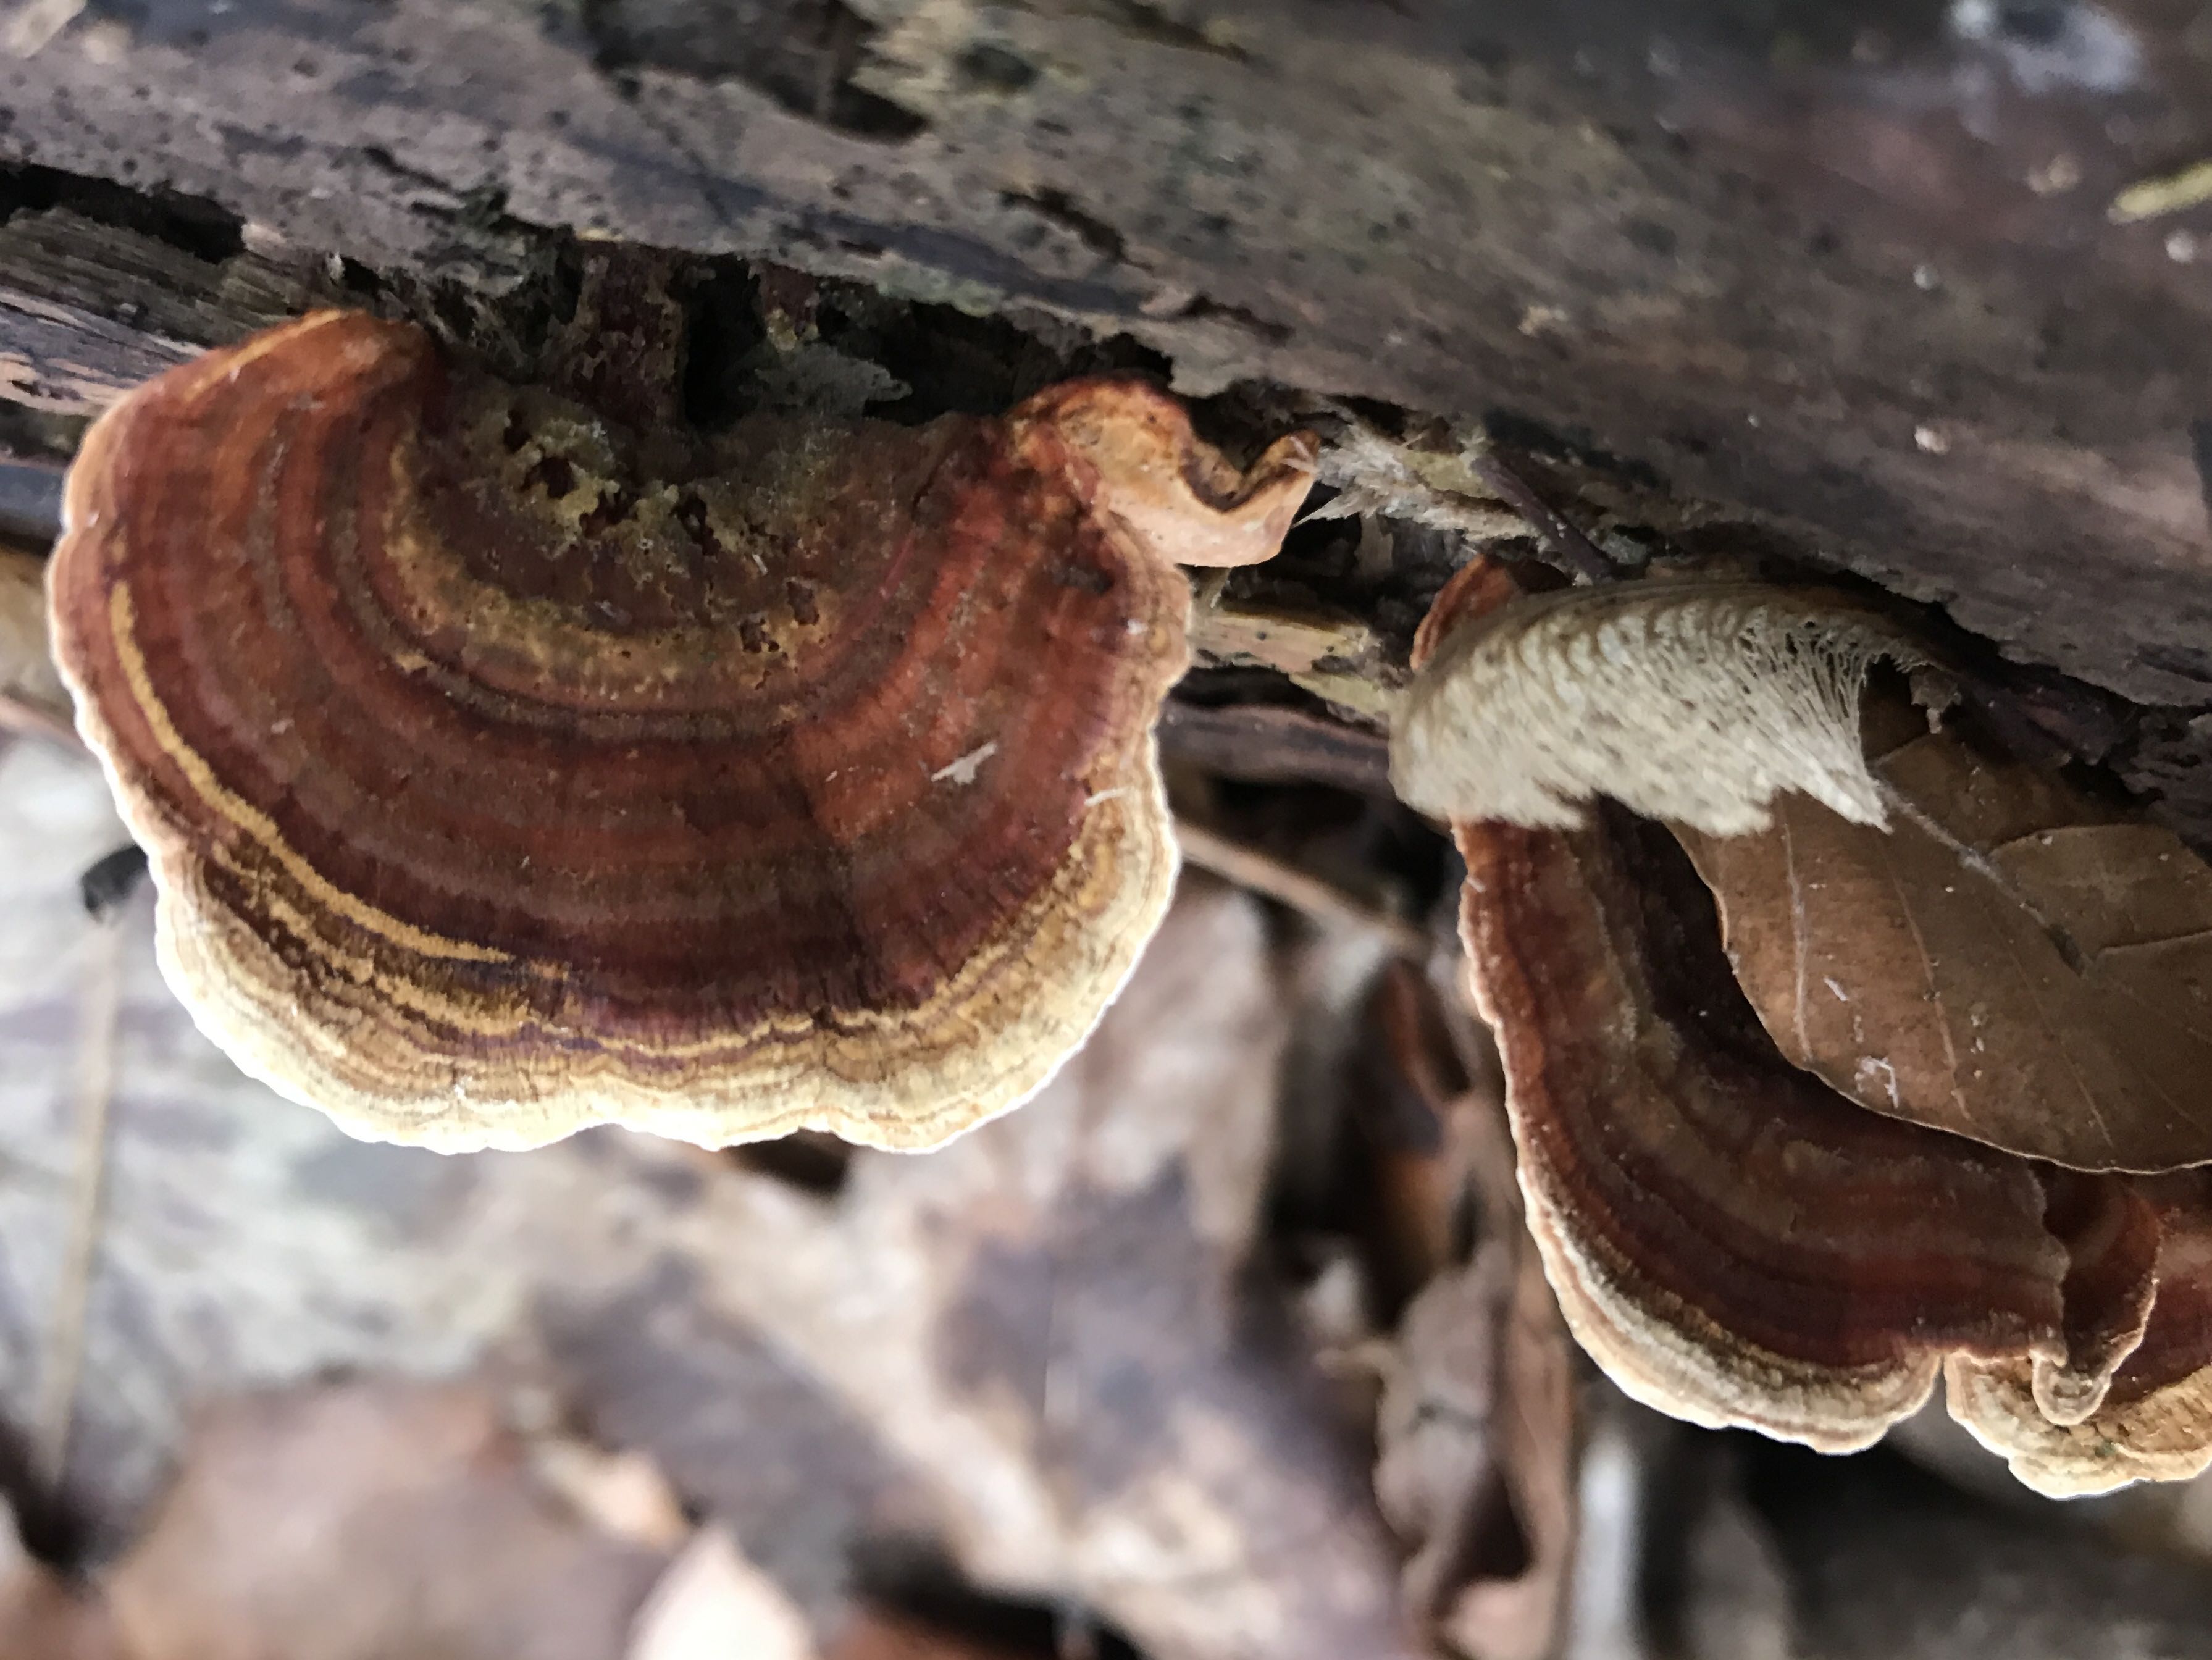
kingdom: Fungi
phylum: Basidiomycota
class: Agaricomycetes
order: Russulales
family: Stereaceae
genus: Stereum
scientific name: Stereum subtomentosum
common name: smuk lædersvamp
